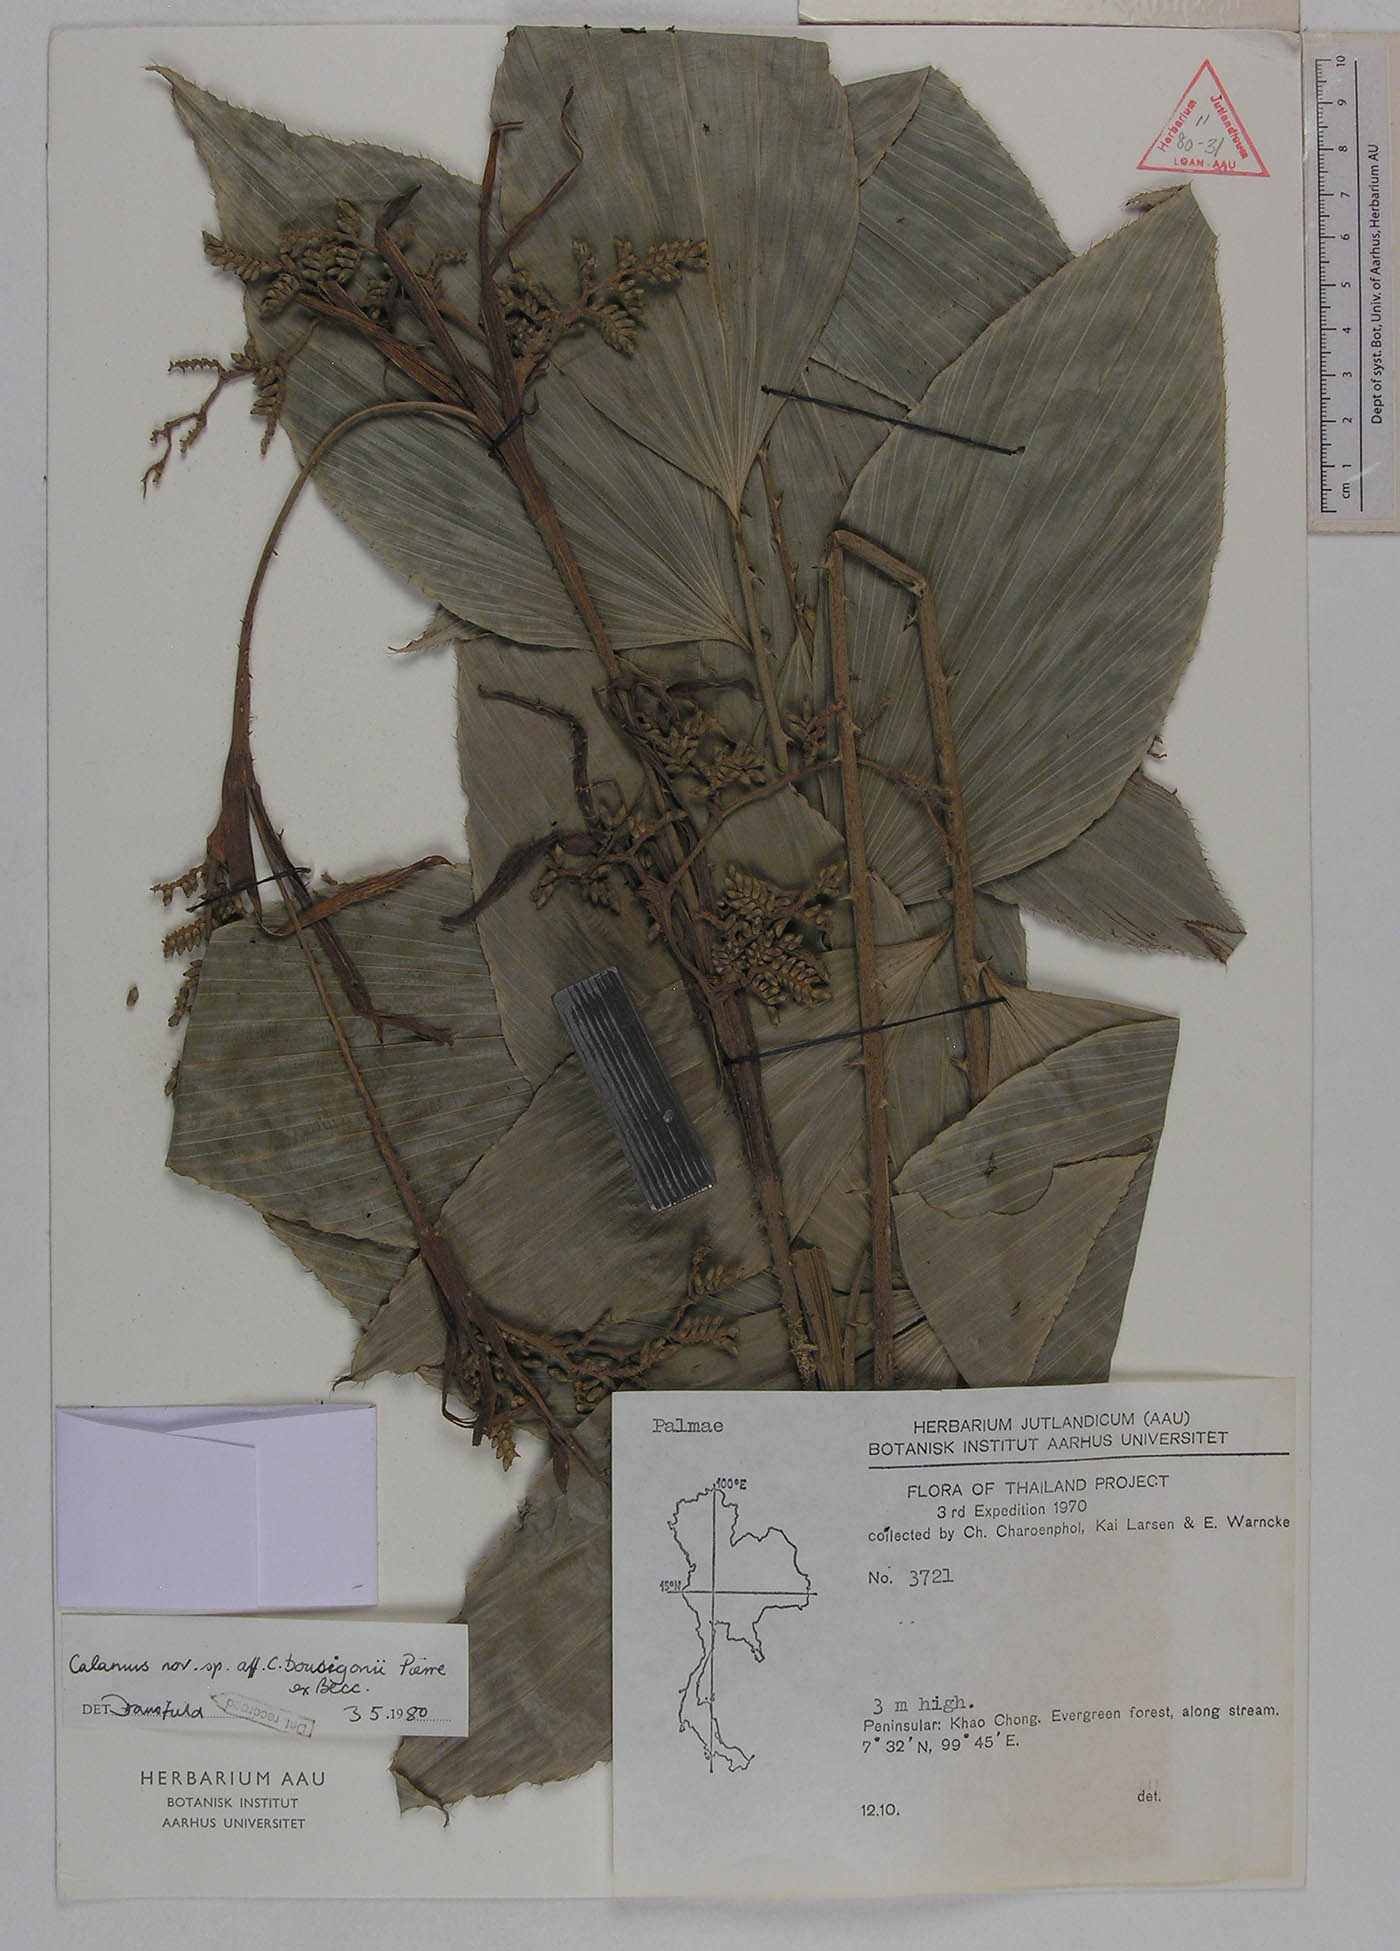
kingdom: Plantae
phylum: Tracheophyta
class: Liliopsida
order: Arecales
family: Arecaceae
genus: Calamus
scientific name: Calamus bousigonii
